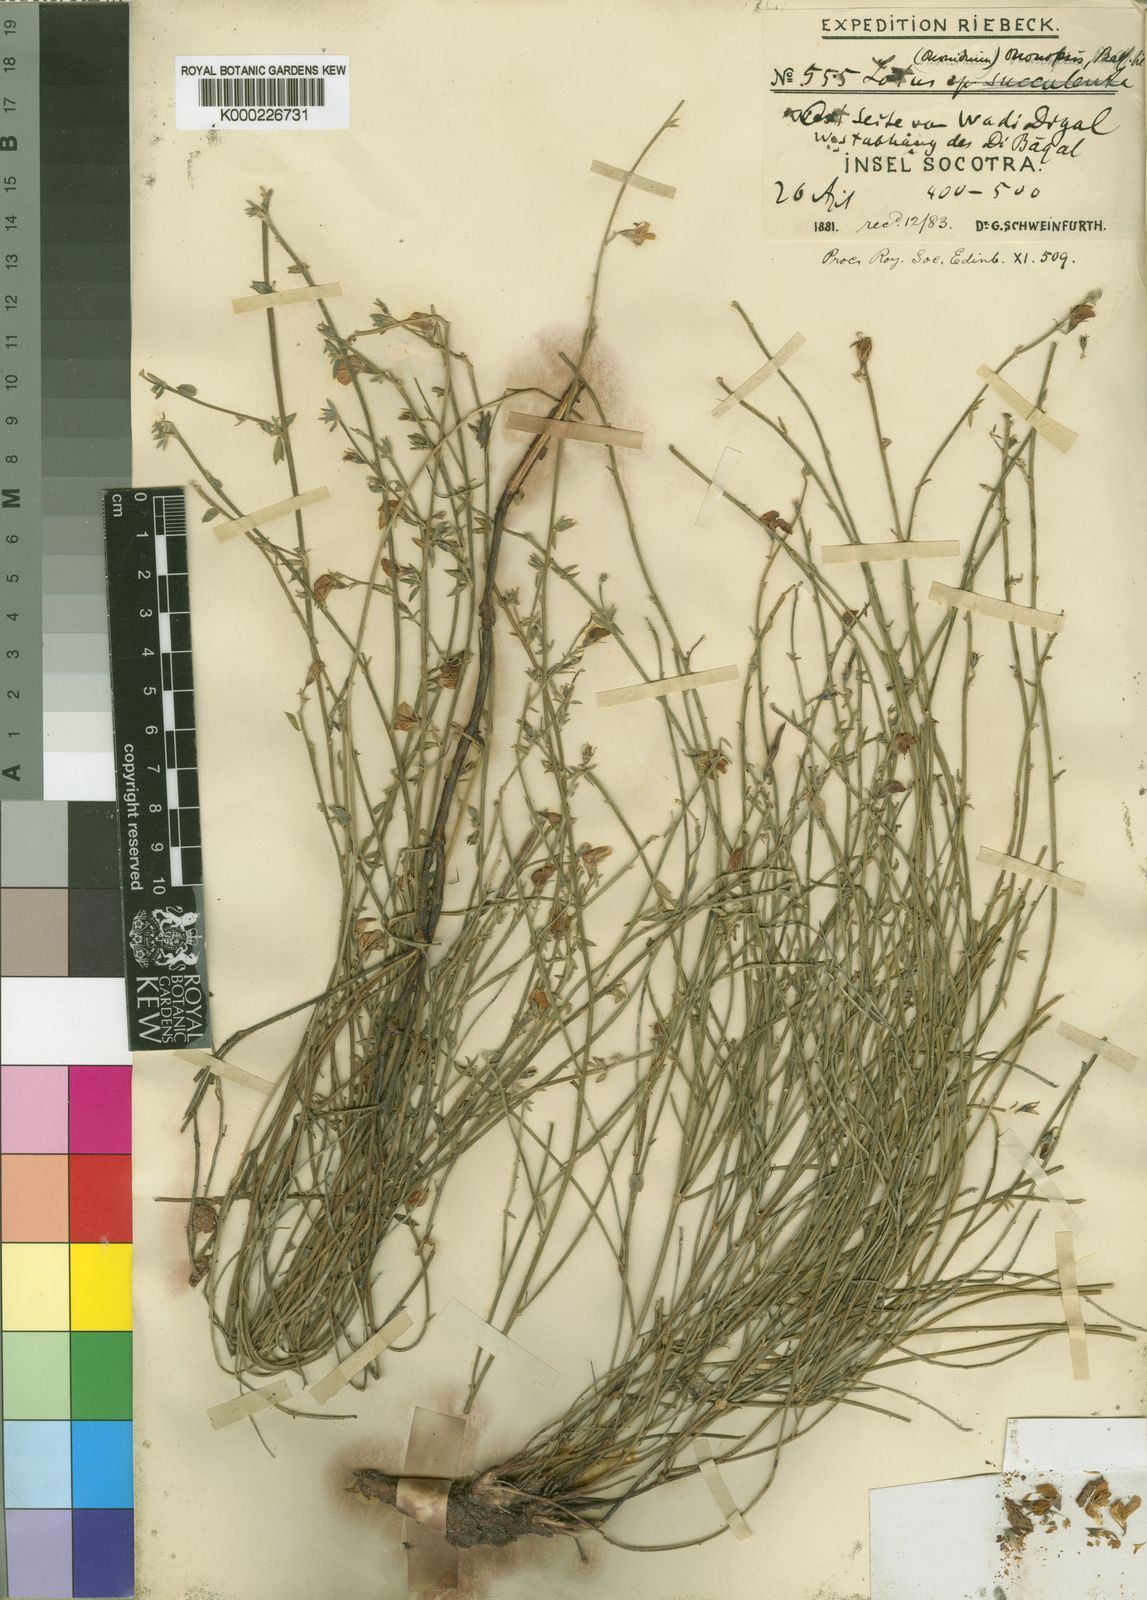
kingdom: Plantae
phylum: Tracheophyta
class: Magnoliopsida
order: Fabales
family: Fabaceae
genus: Lotus
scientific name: Lotus ononopsis
